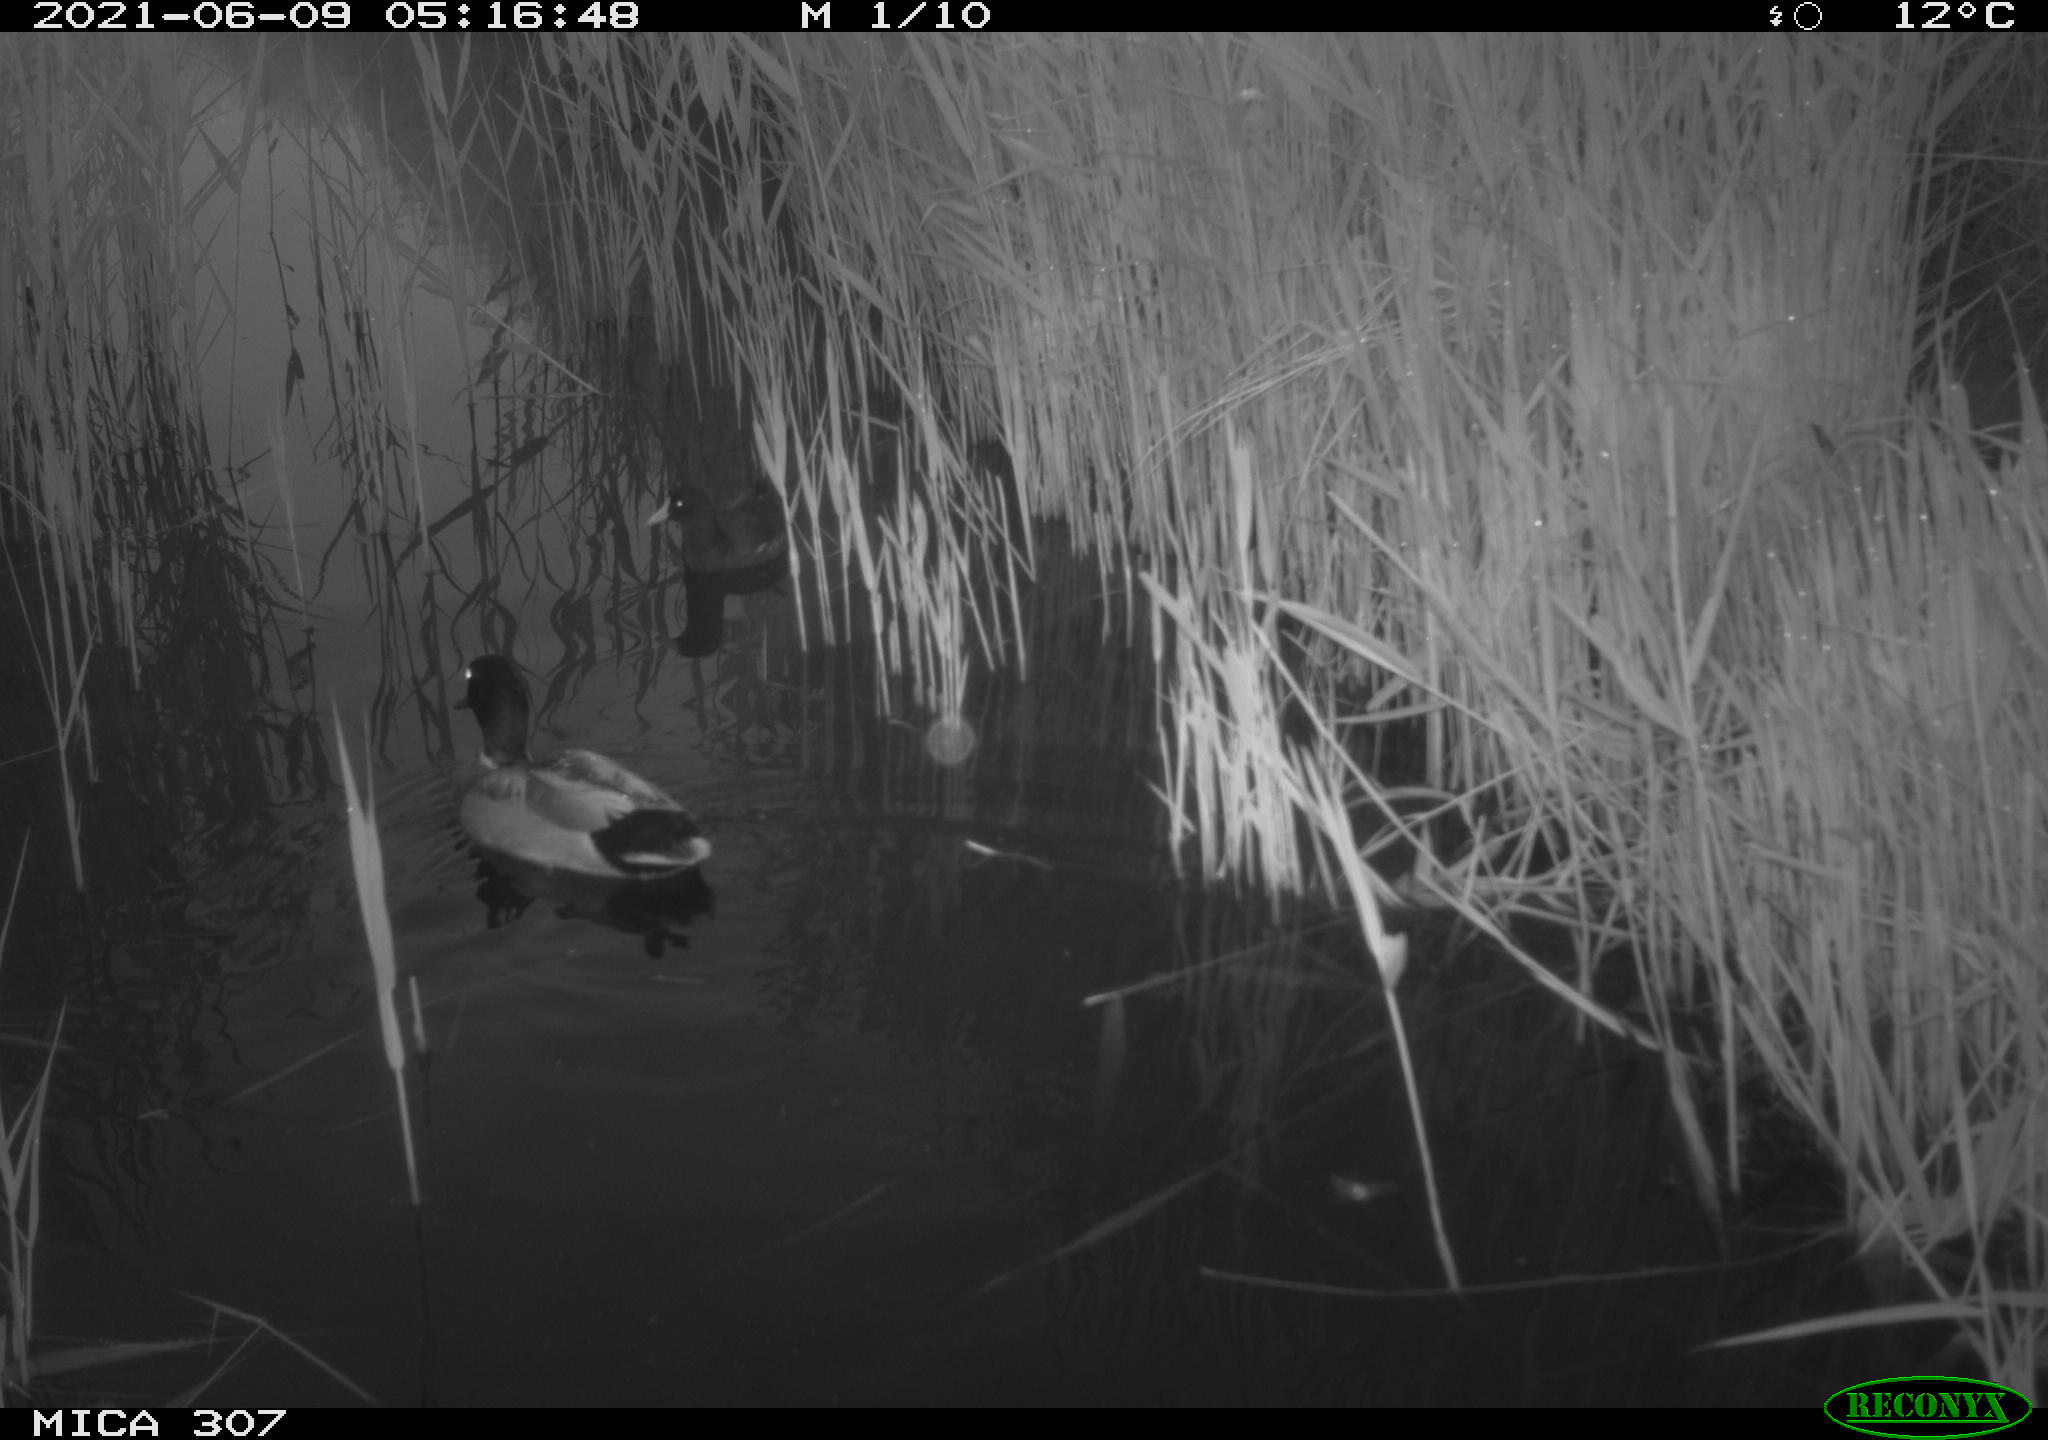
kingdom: Animalia
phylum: Chordata
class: Aves
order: Gruiformes
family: Rallidae
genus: Gallinula
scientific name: Gallinula chloropus
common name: Common moorhen
